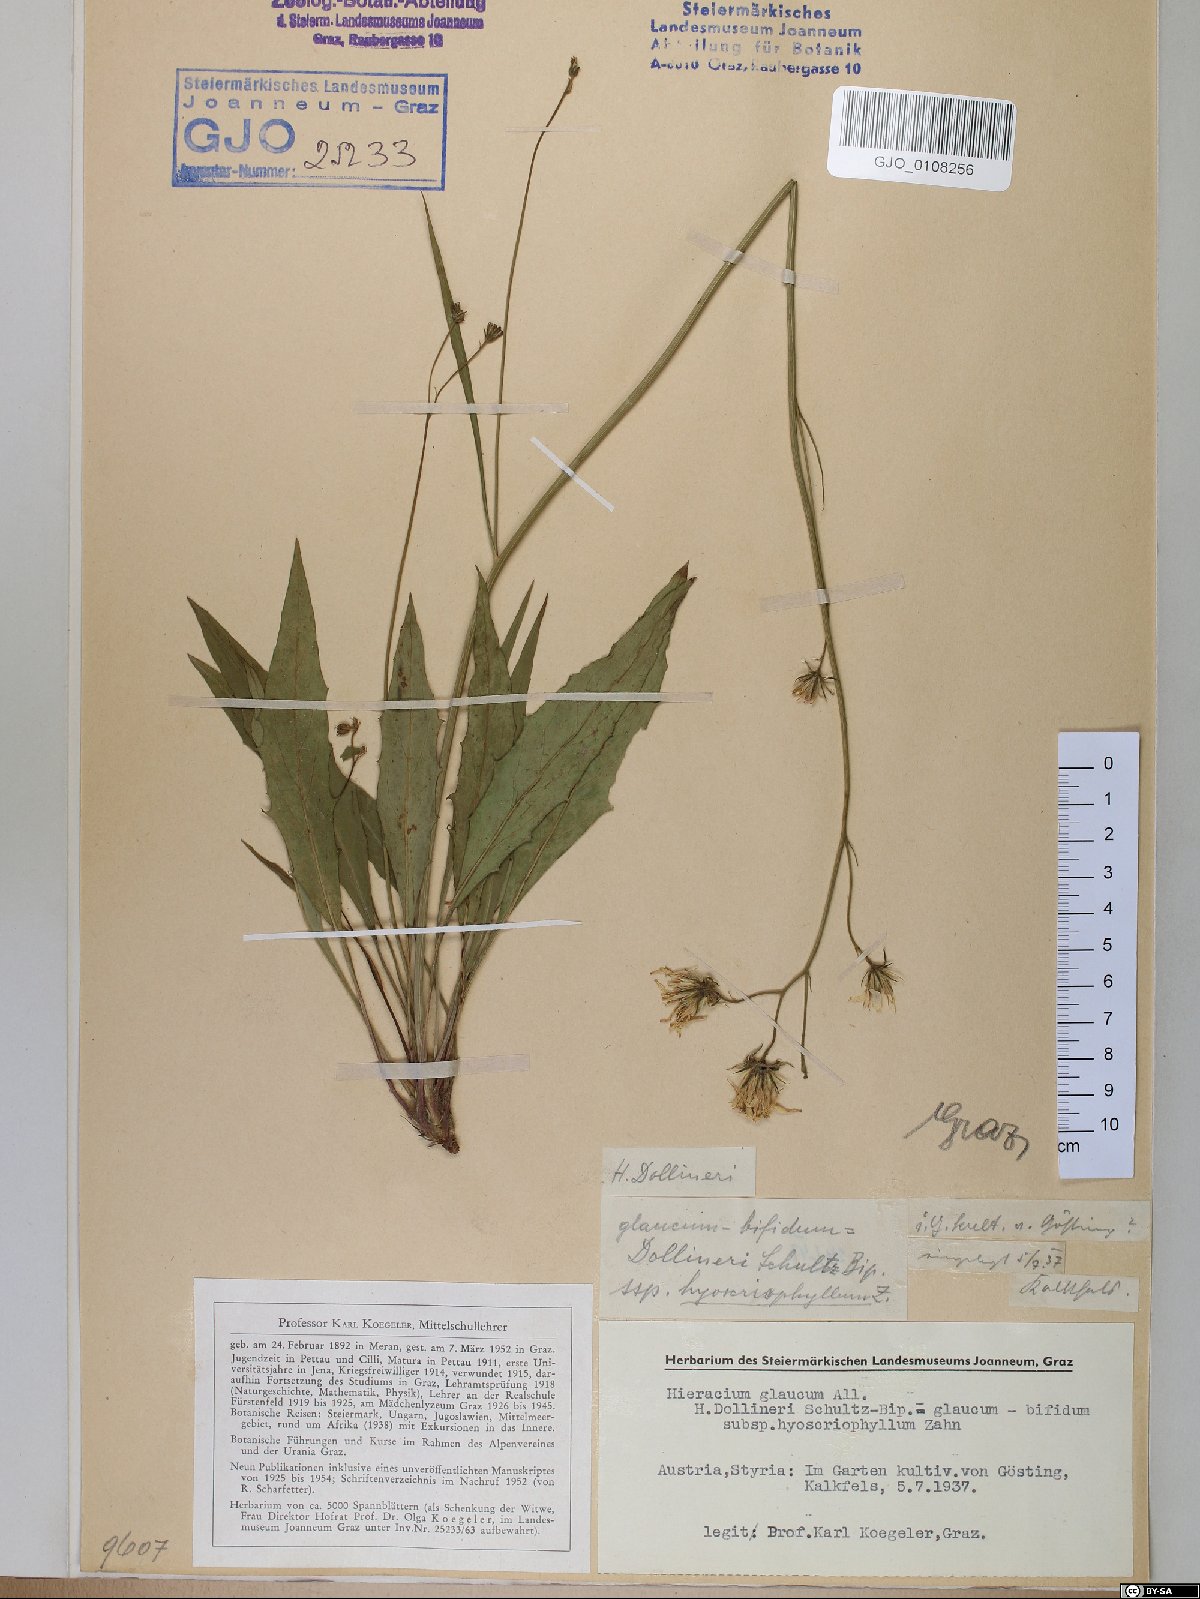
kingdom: Plantae
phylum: Tracheophyta
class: Magnoliopsida
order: Asterales
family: Asteraceae
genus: Hieracium
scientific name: Hieracium dollineri
